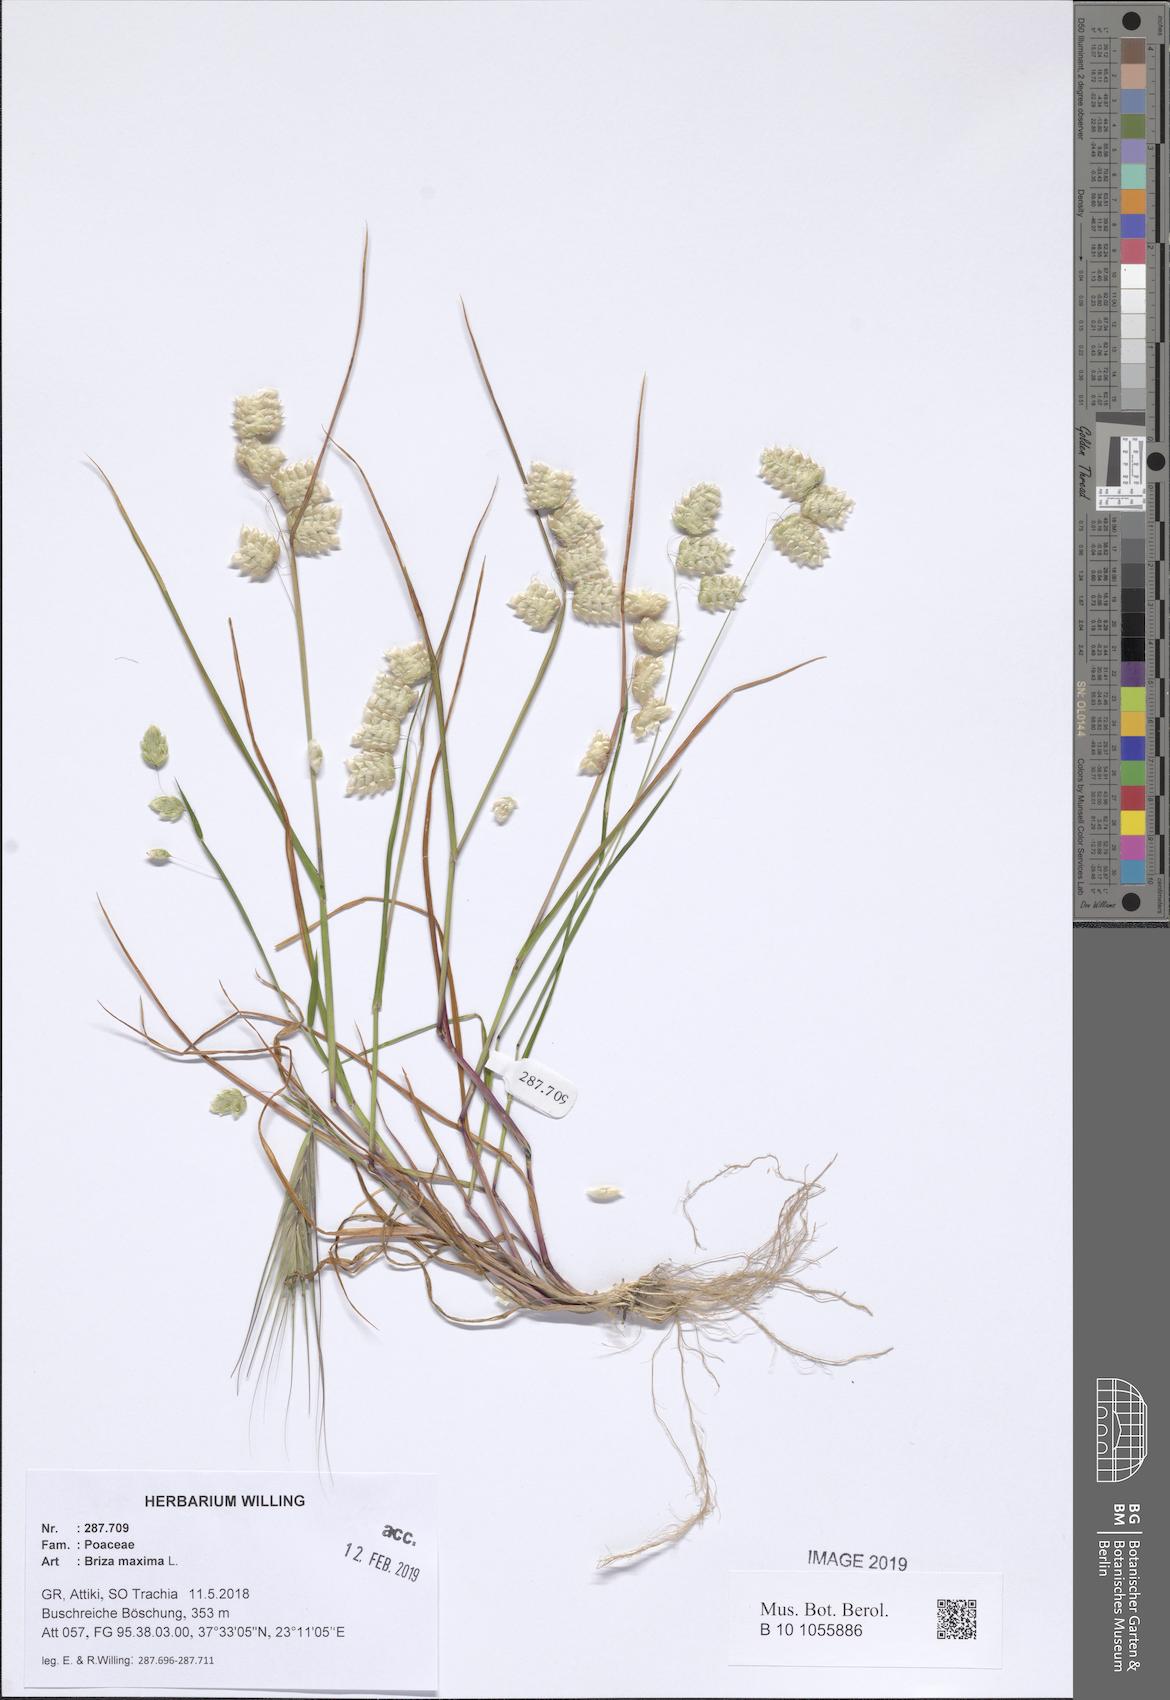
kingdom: Plantae
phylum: Tracheophyta
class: Liliopsida
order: Poales
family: Poaceae
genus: Briza
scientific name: Briza maxima
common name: Big quakinggrass
